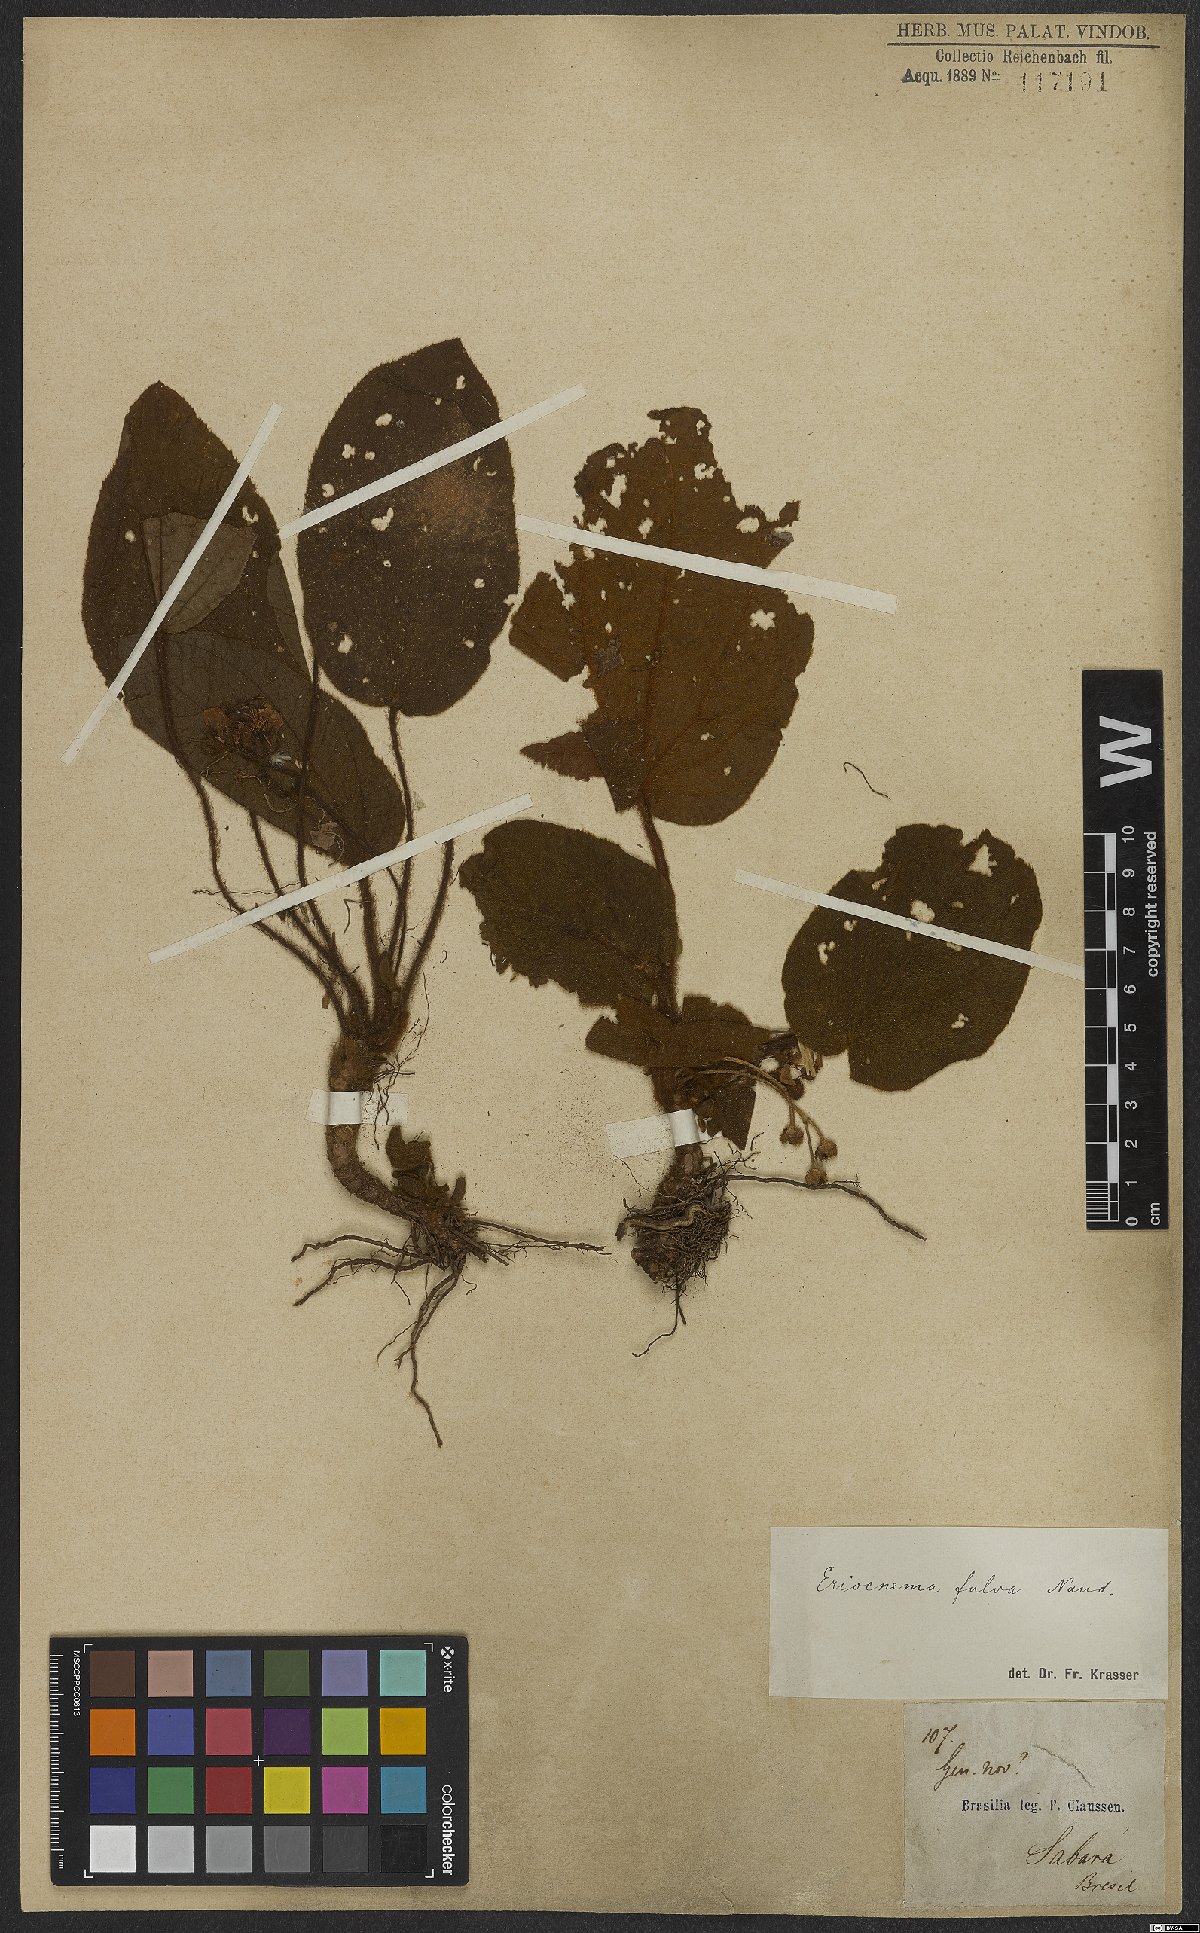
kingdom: Plantae
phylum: Tracheophyta
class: Magnoliopsida
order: Myrtales
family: Melastomataceae
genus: Eriocnema
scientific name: Eriocnema fulva
